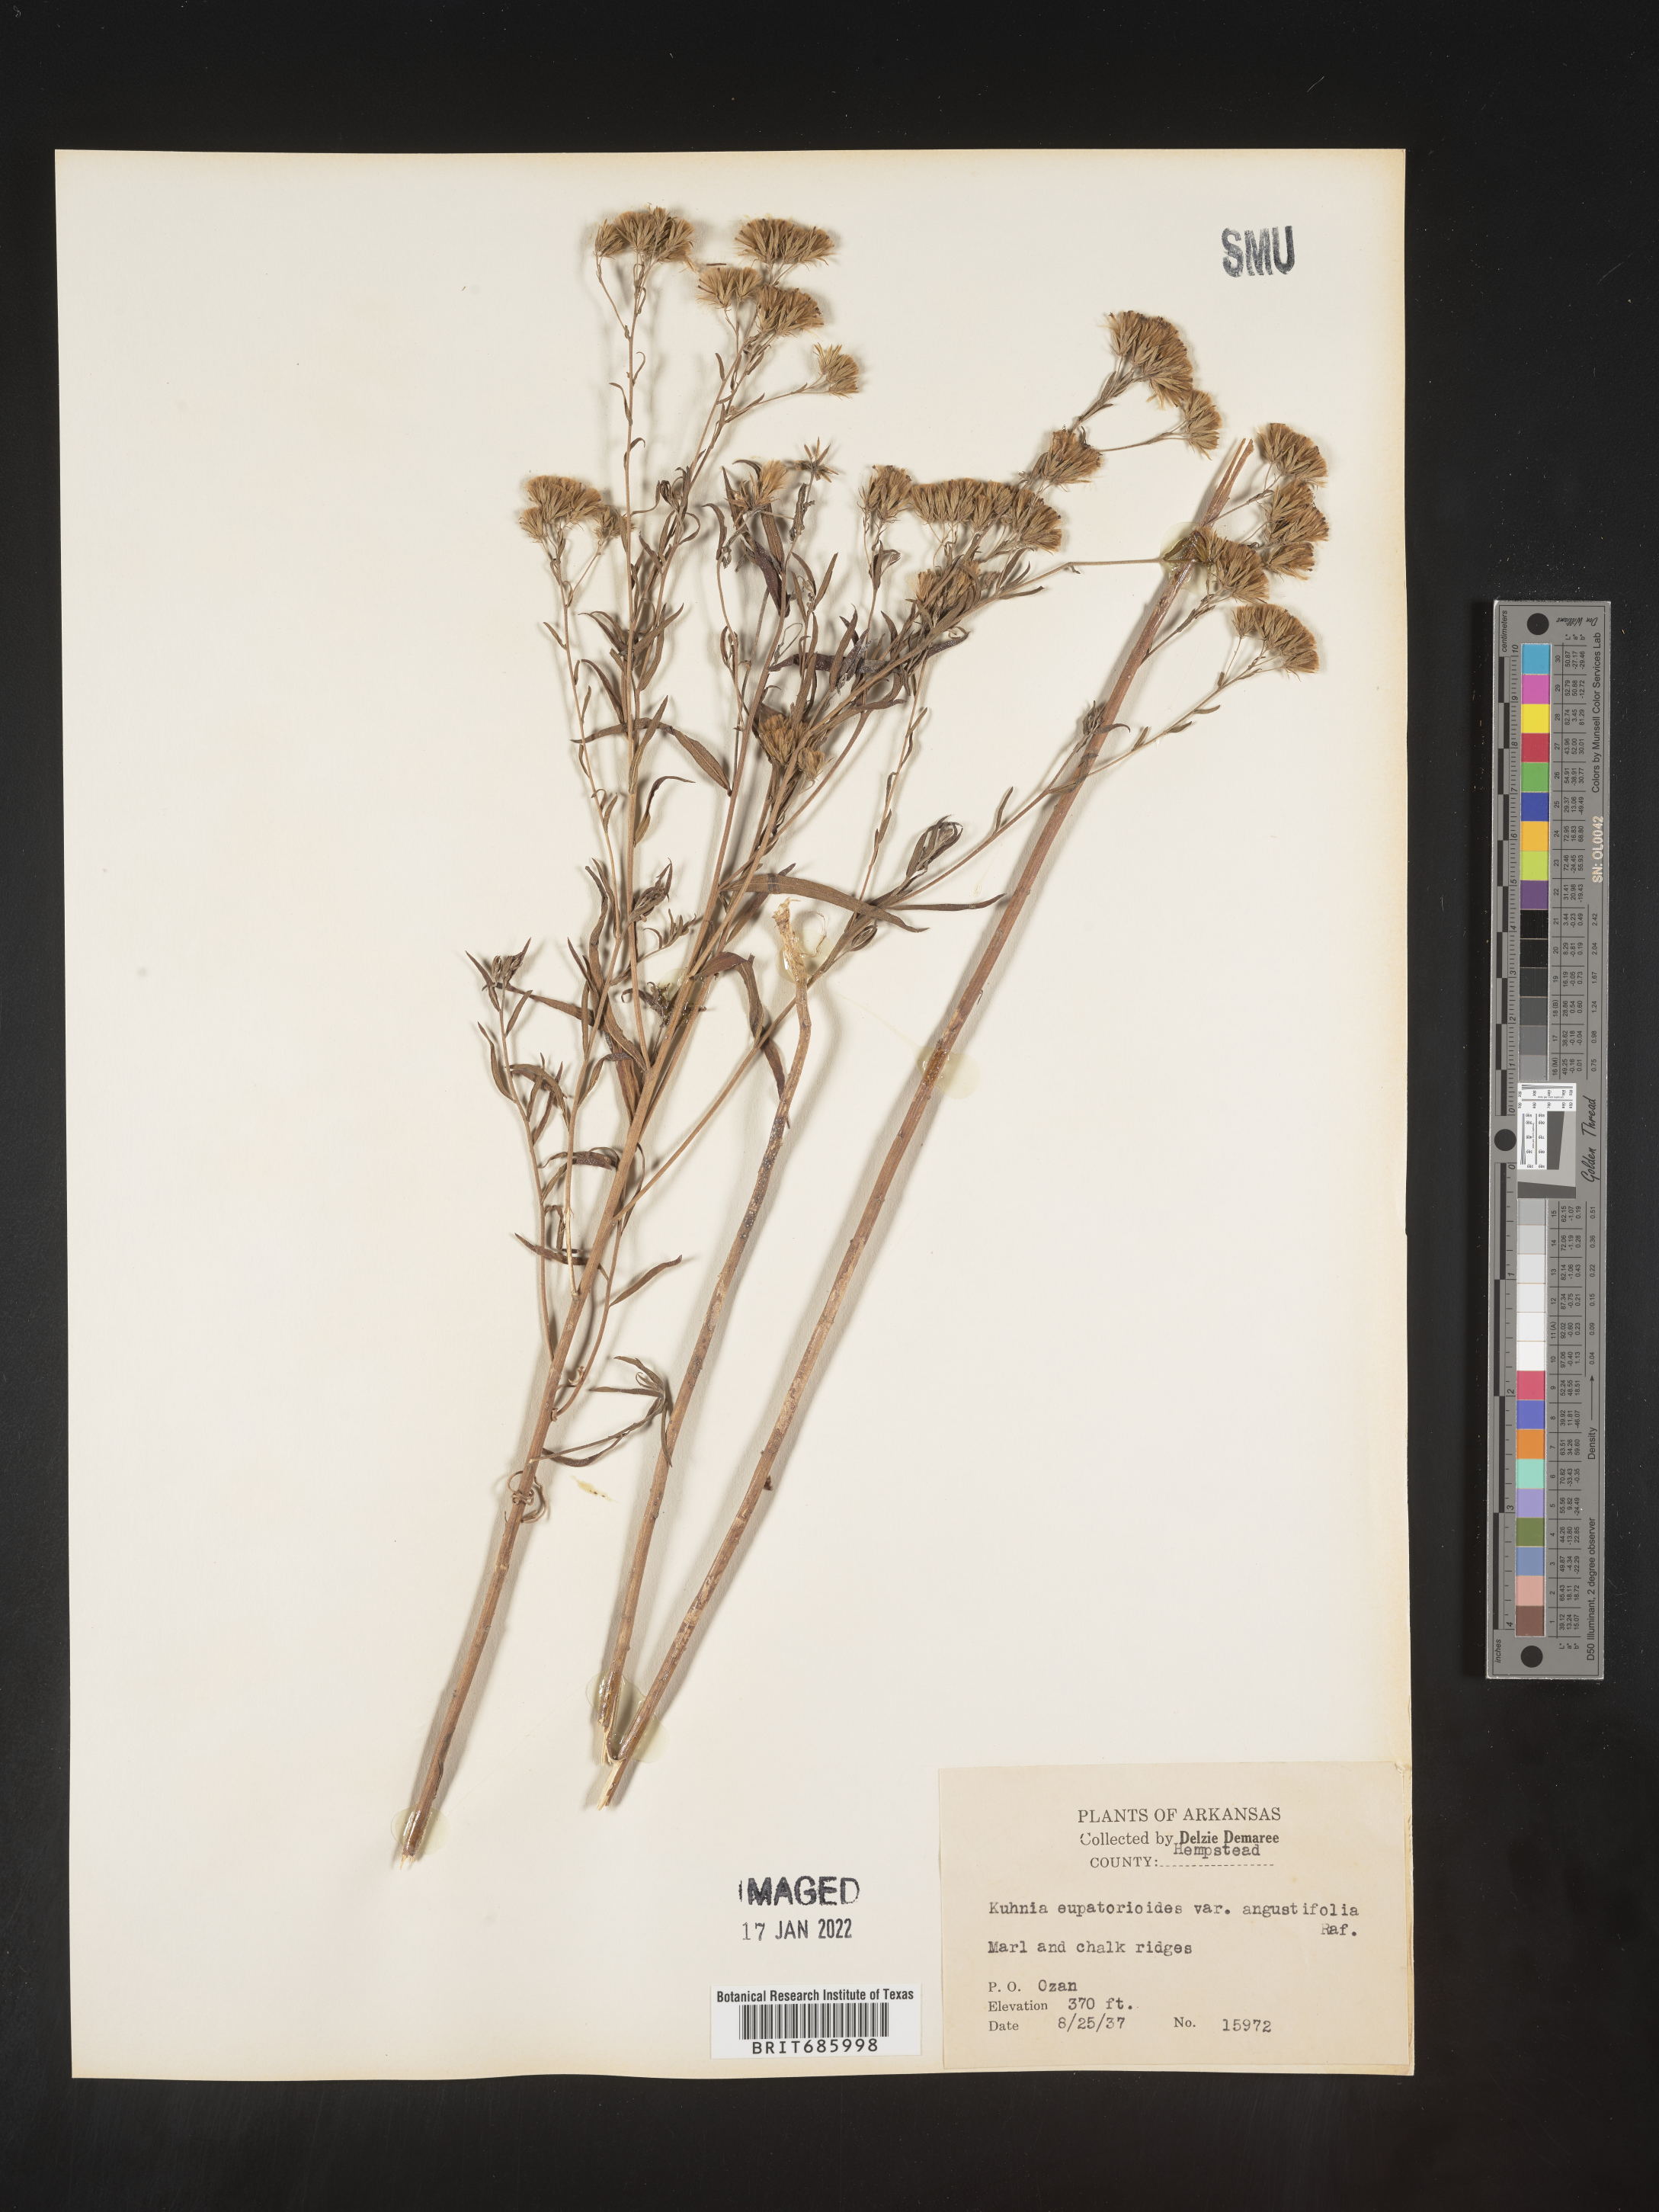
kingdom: Plantae
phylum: Tracheophyta
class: Magnoliopsida
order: Asterales
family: Asteraceae
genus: Brickellia
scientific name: Brickellia eupatorioides
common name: False boneset
